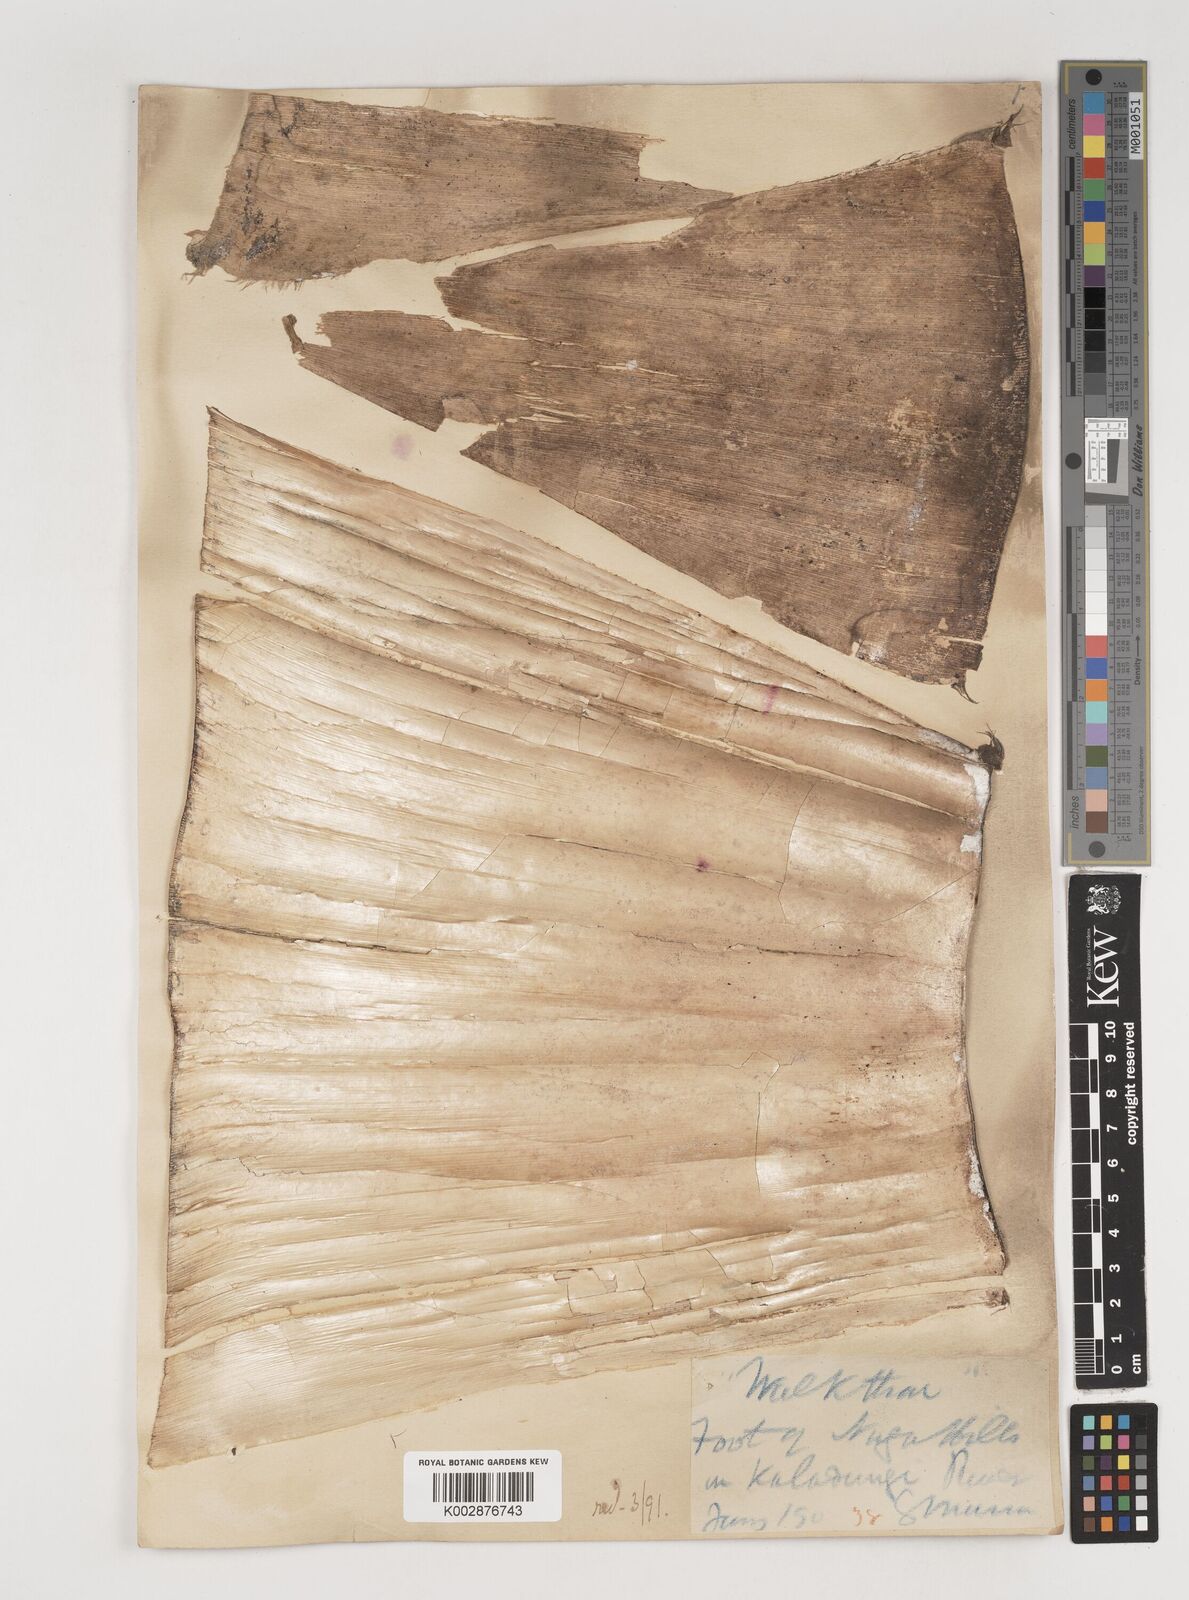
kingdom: Plantae
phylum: Tracheophyta
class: Liliopsida
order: Poales
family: Poaceae
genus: Bambusa
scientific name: Bambusa pallida
